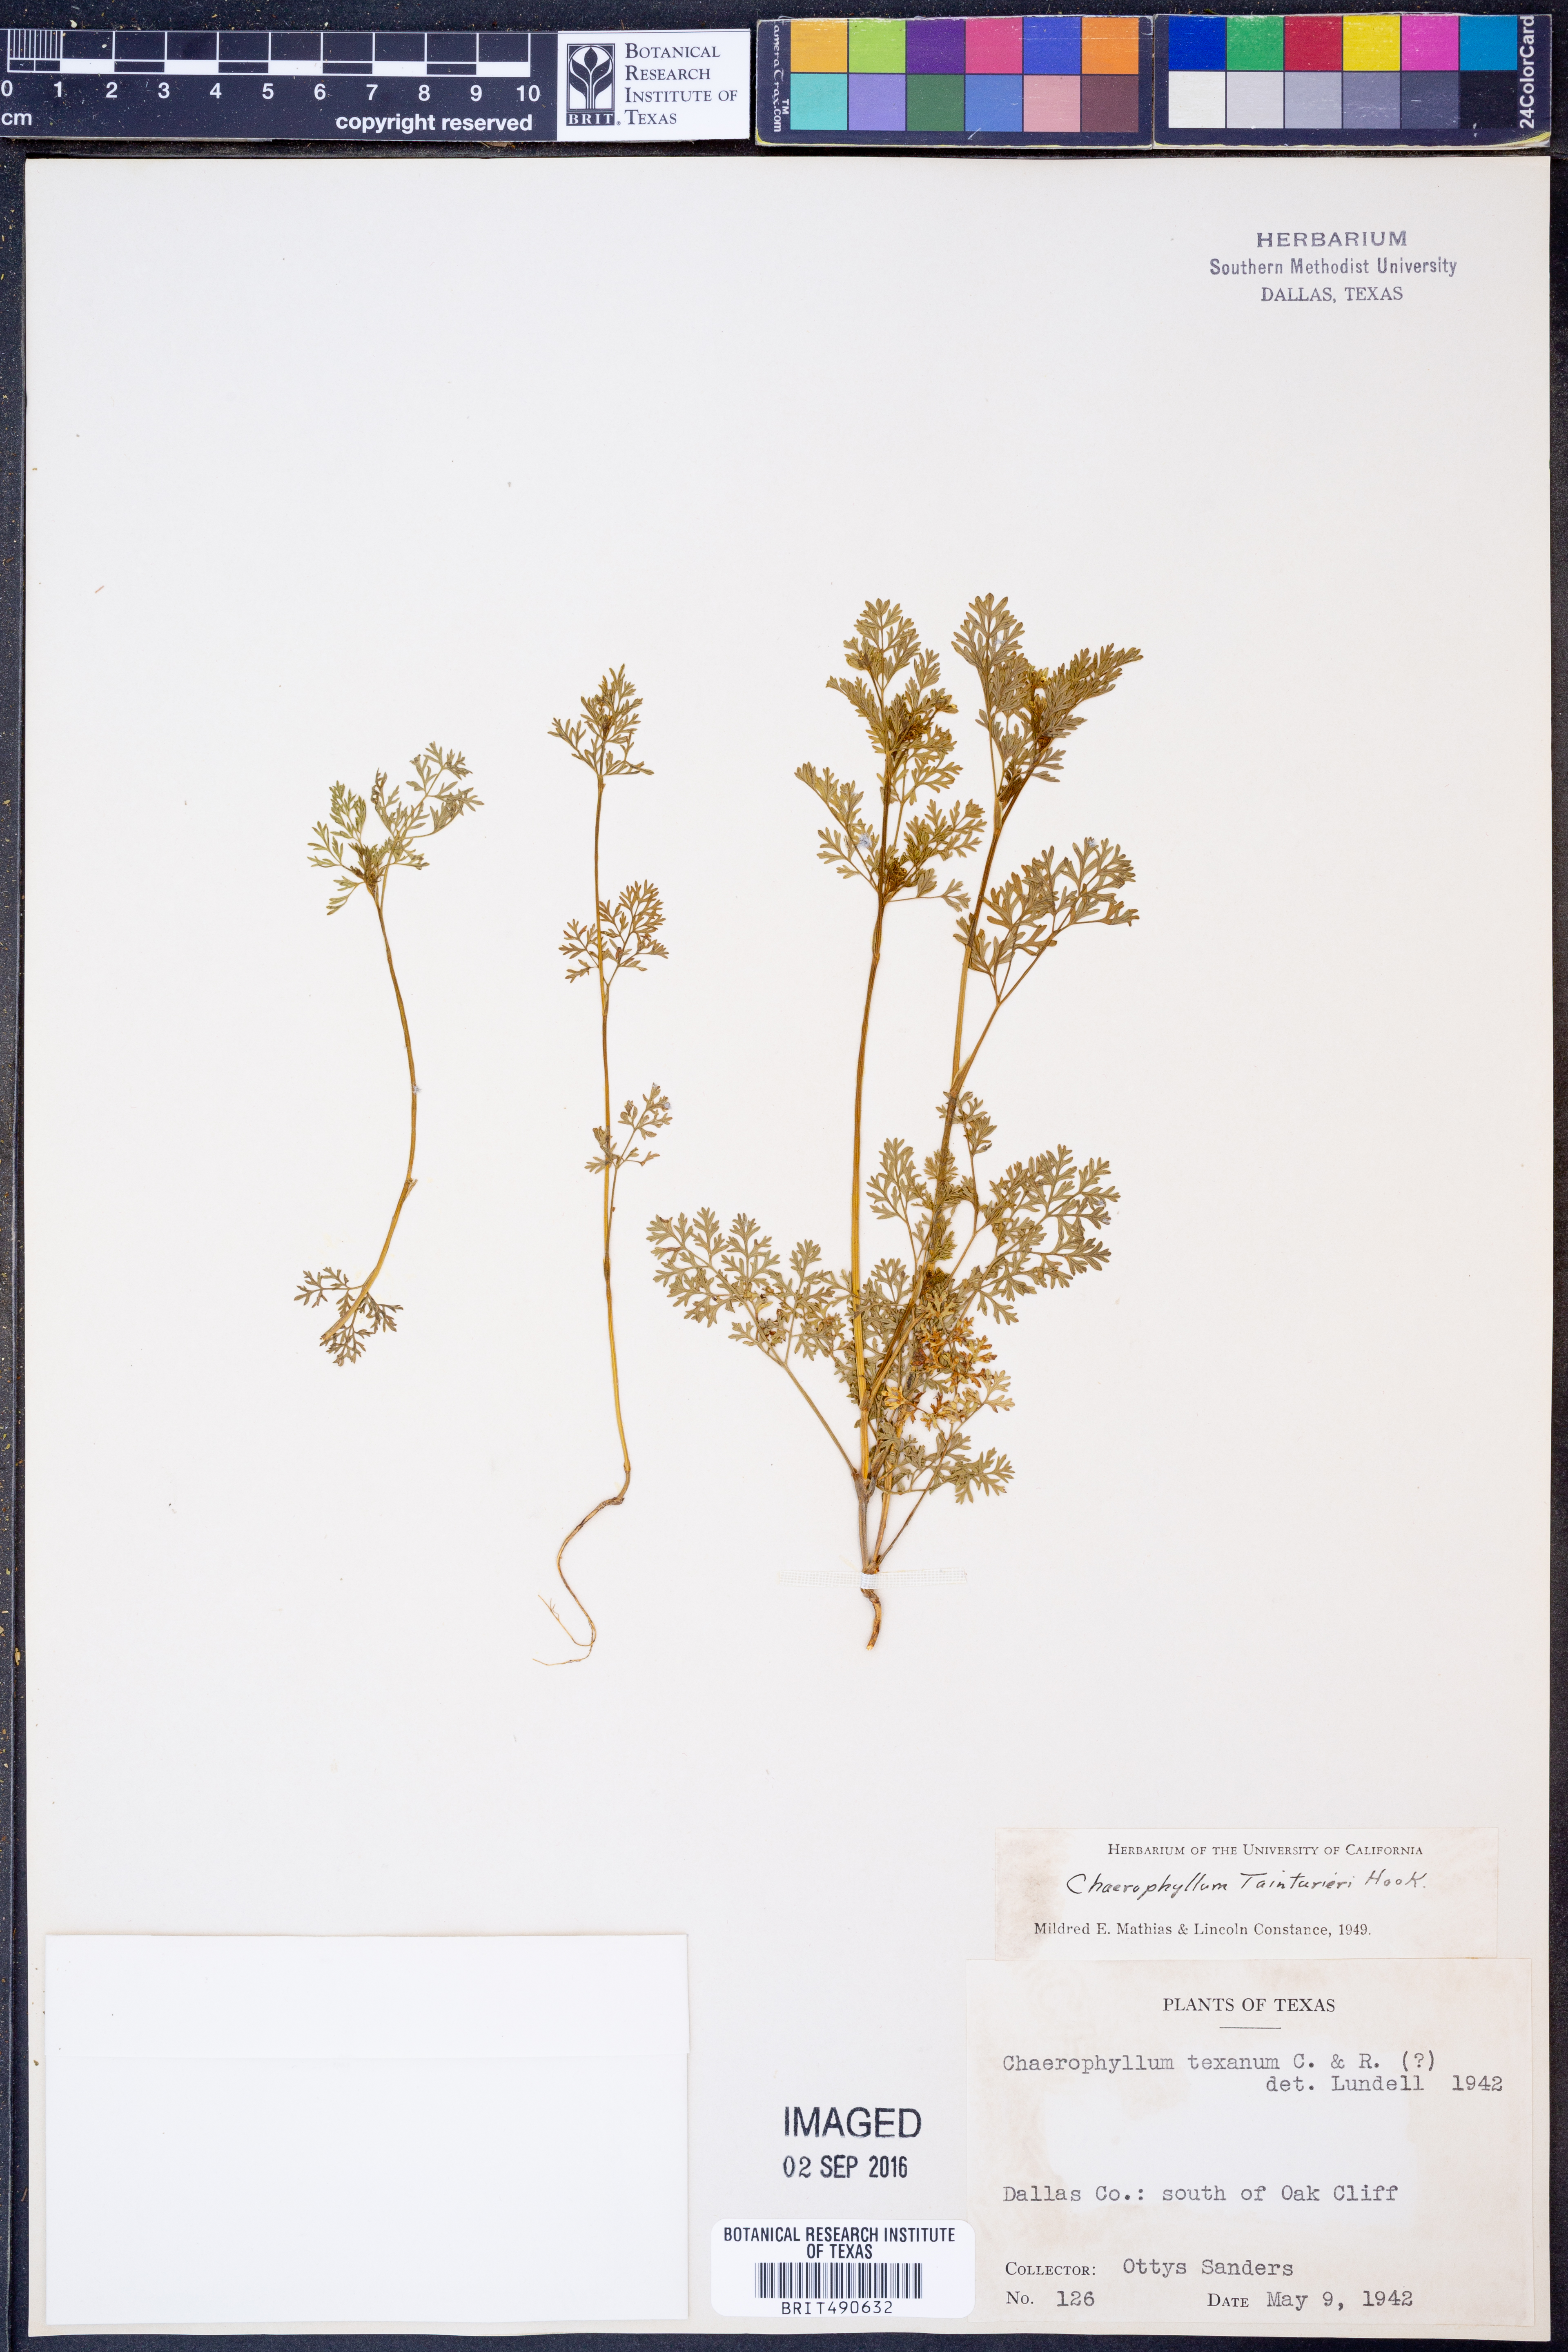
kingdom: Plantae
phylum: Tracheophyta
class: Magnoliopsida
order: Apiales
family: Apiaceae
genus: Chaerophyllum
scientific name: Chaerophyllum tainturieri
